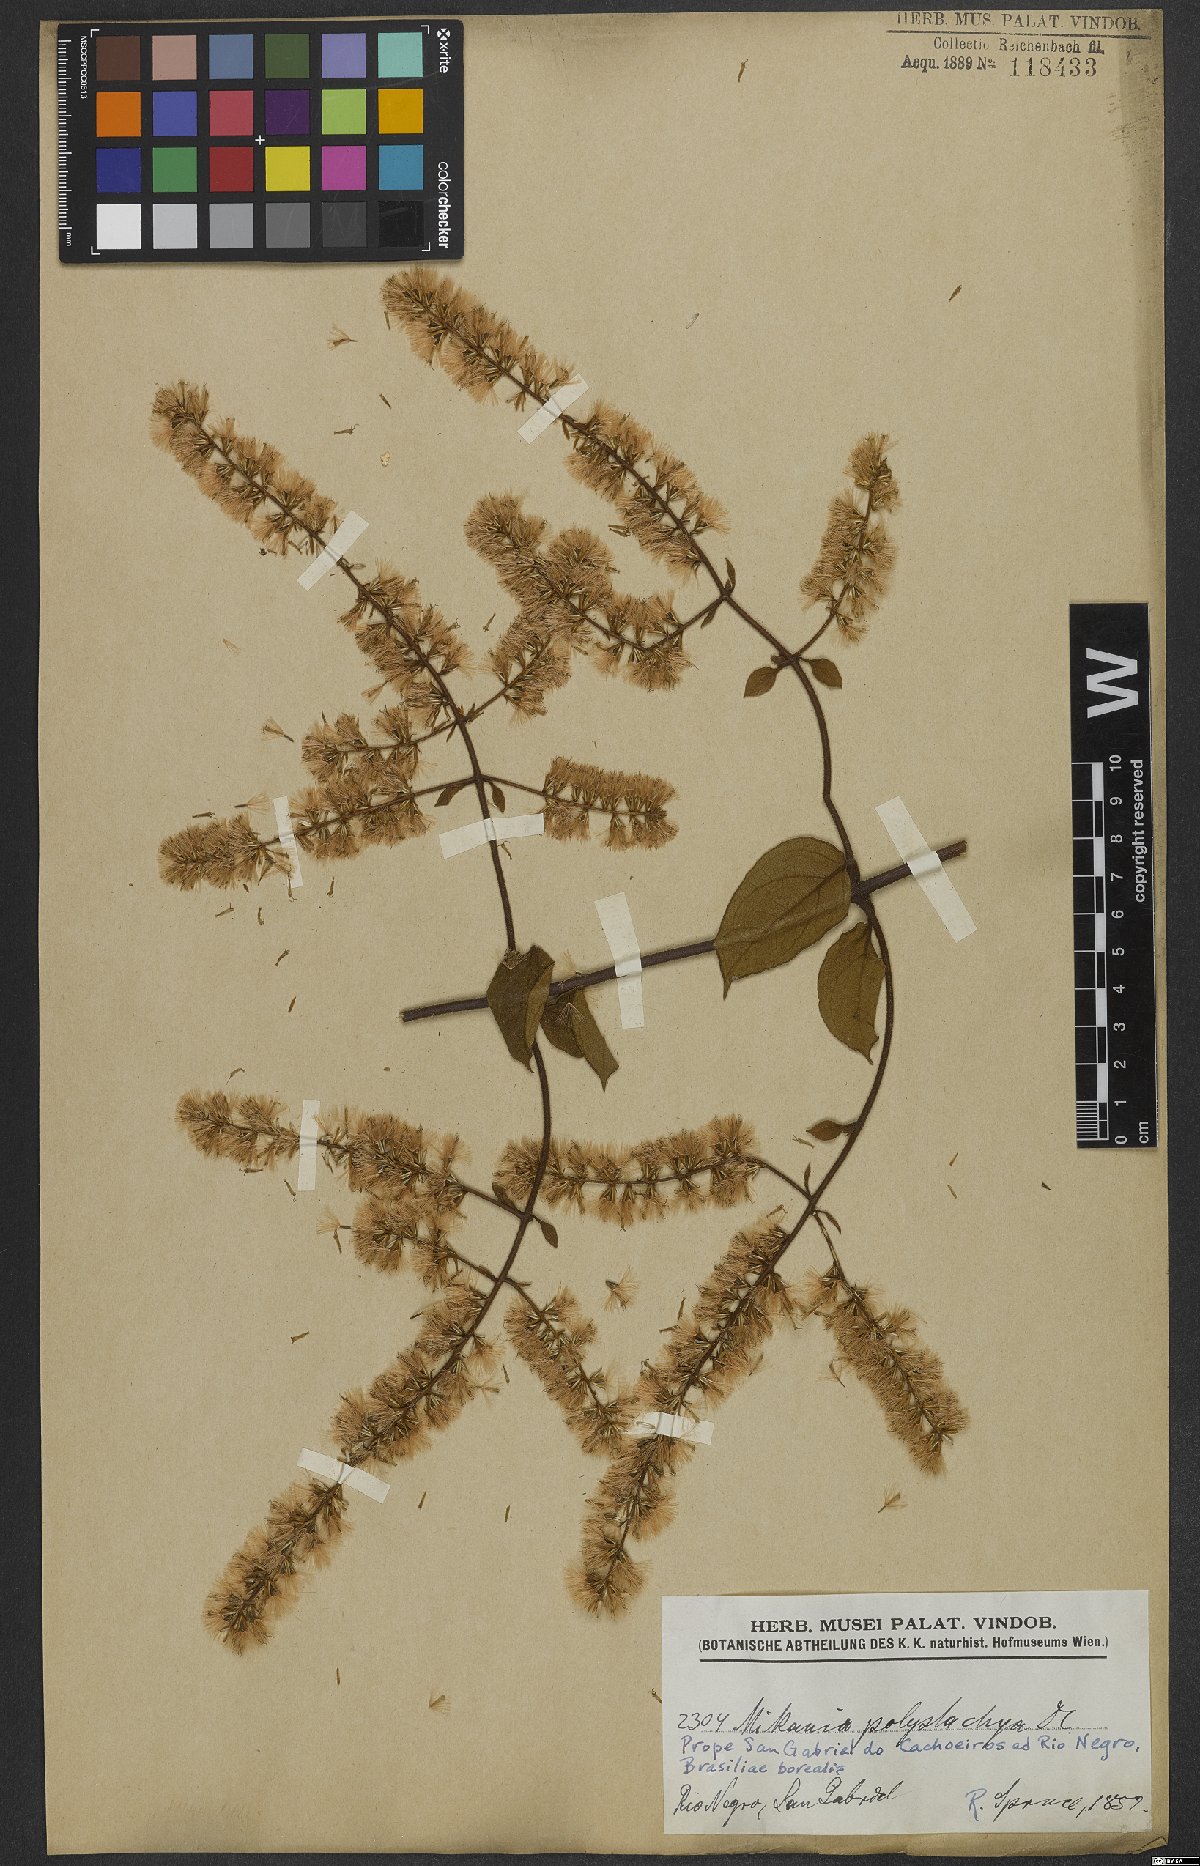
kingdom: Plantae
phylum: Tracheophyta
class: Magnoliopsida
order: Asterales
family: Asteraceae
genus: Mikania
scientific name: Mikania psilostachya
